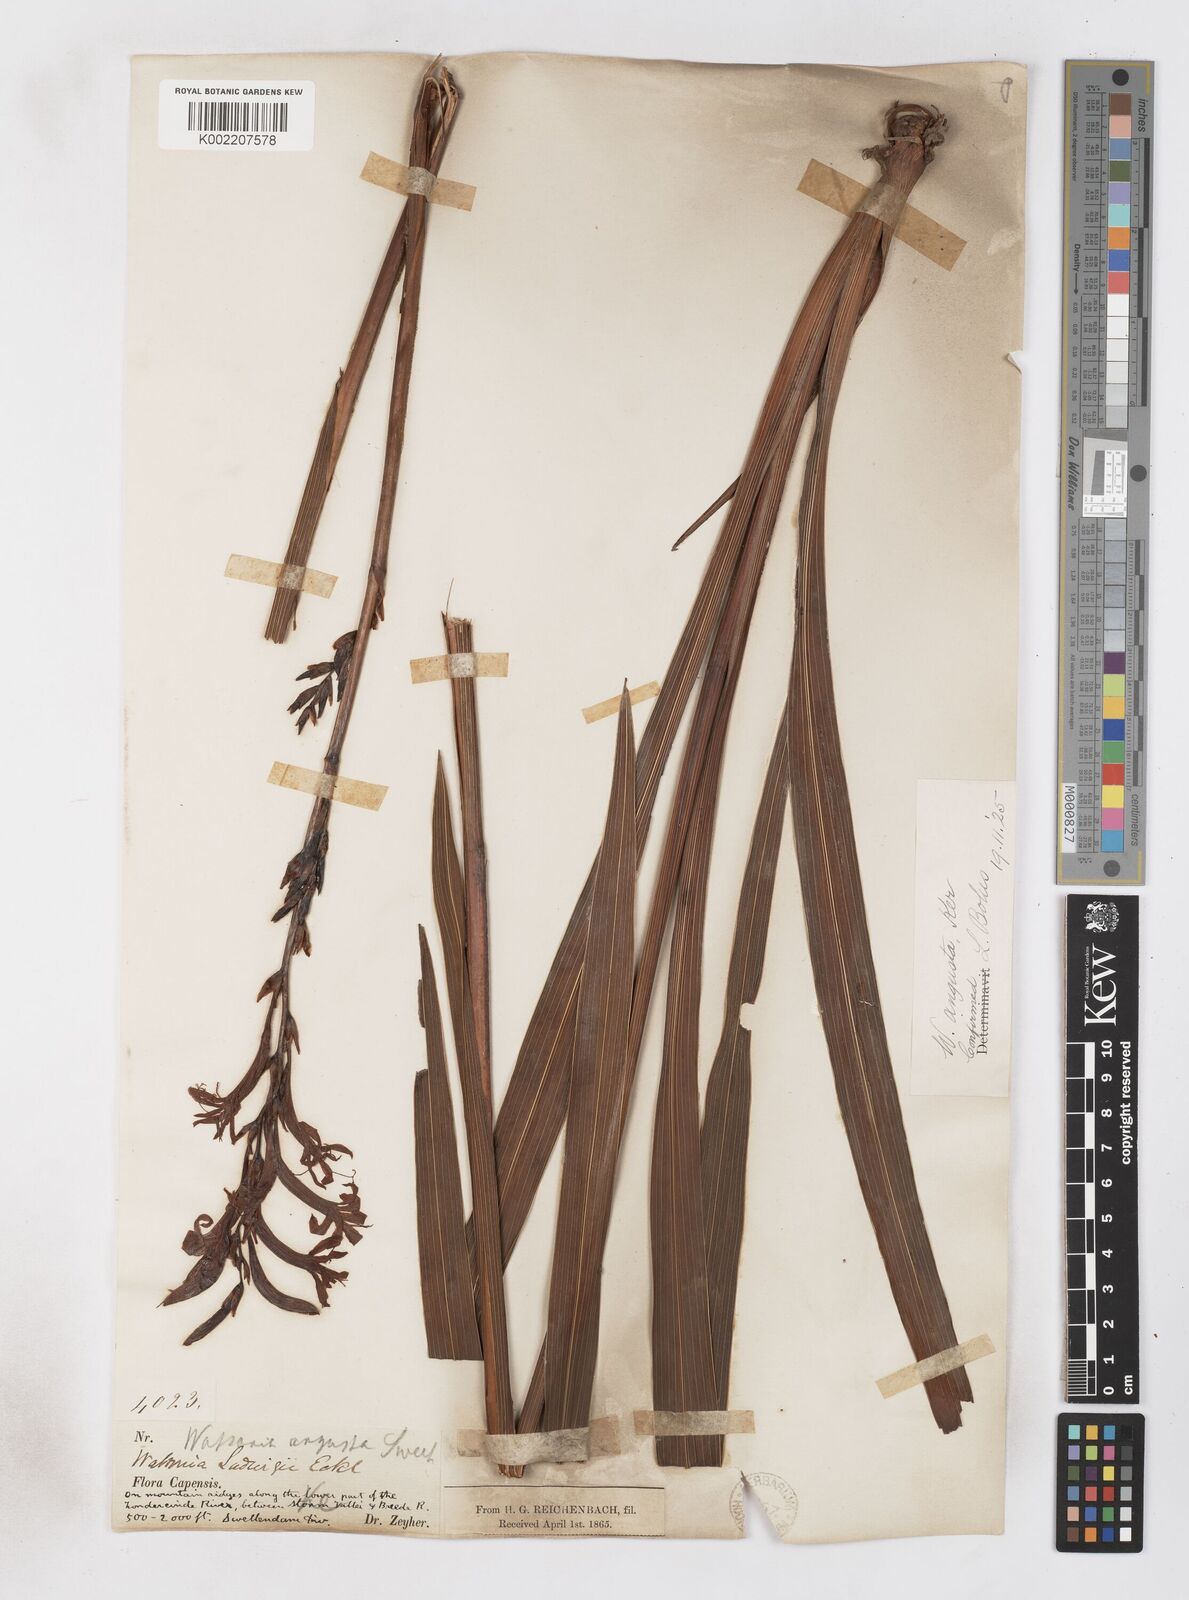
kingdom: Plantae
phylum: Tracheophyta
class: Liliopsida
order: Asparagales
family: Iridaceae
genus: Watsonia
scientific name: Watsonia
